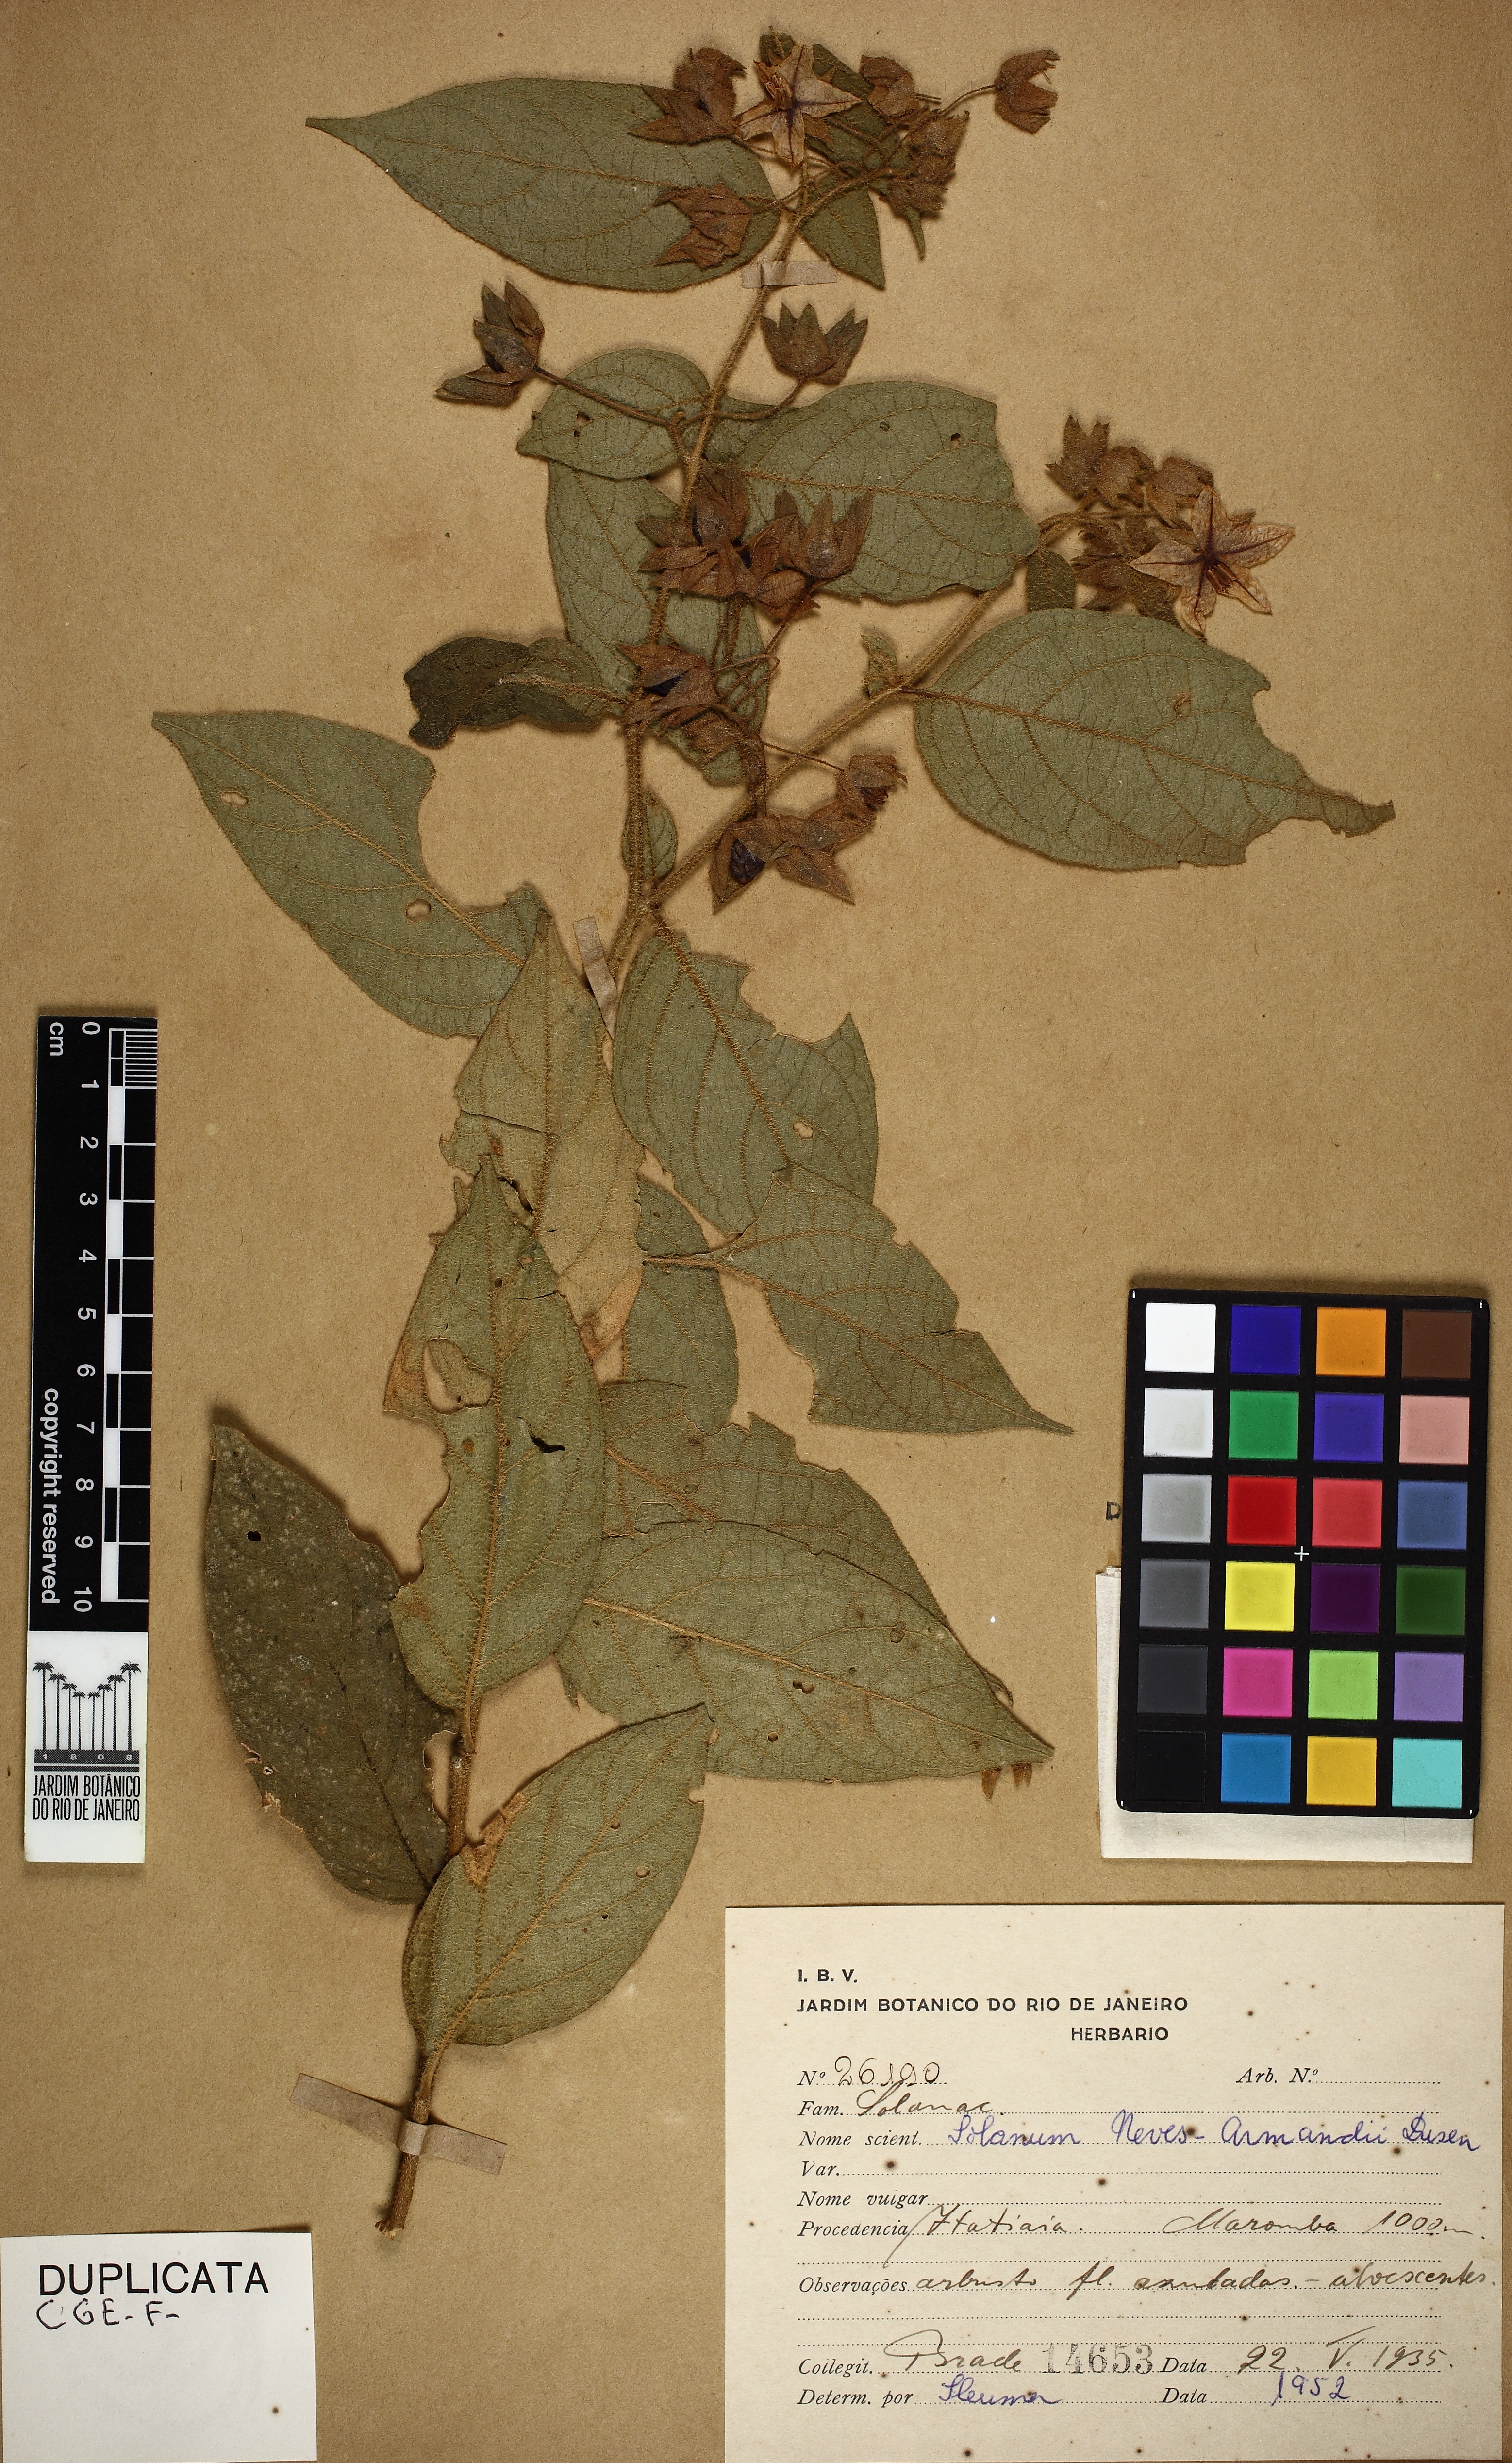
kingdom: Plantae
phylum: Tracheophyta
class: Magnoliopsida
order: Solanales
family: Solanaceae
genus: Solanum
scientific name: Solanum megalochiton
